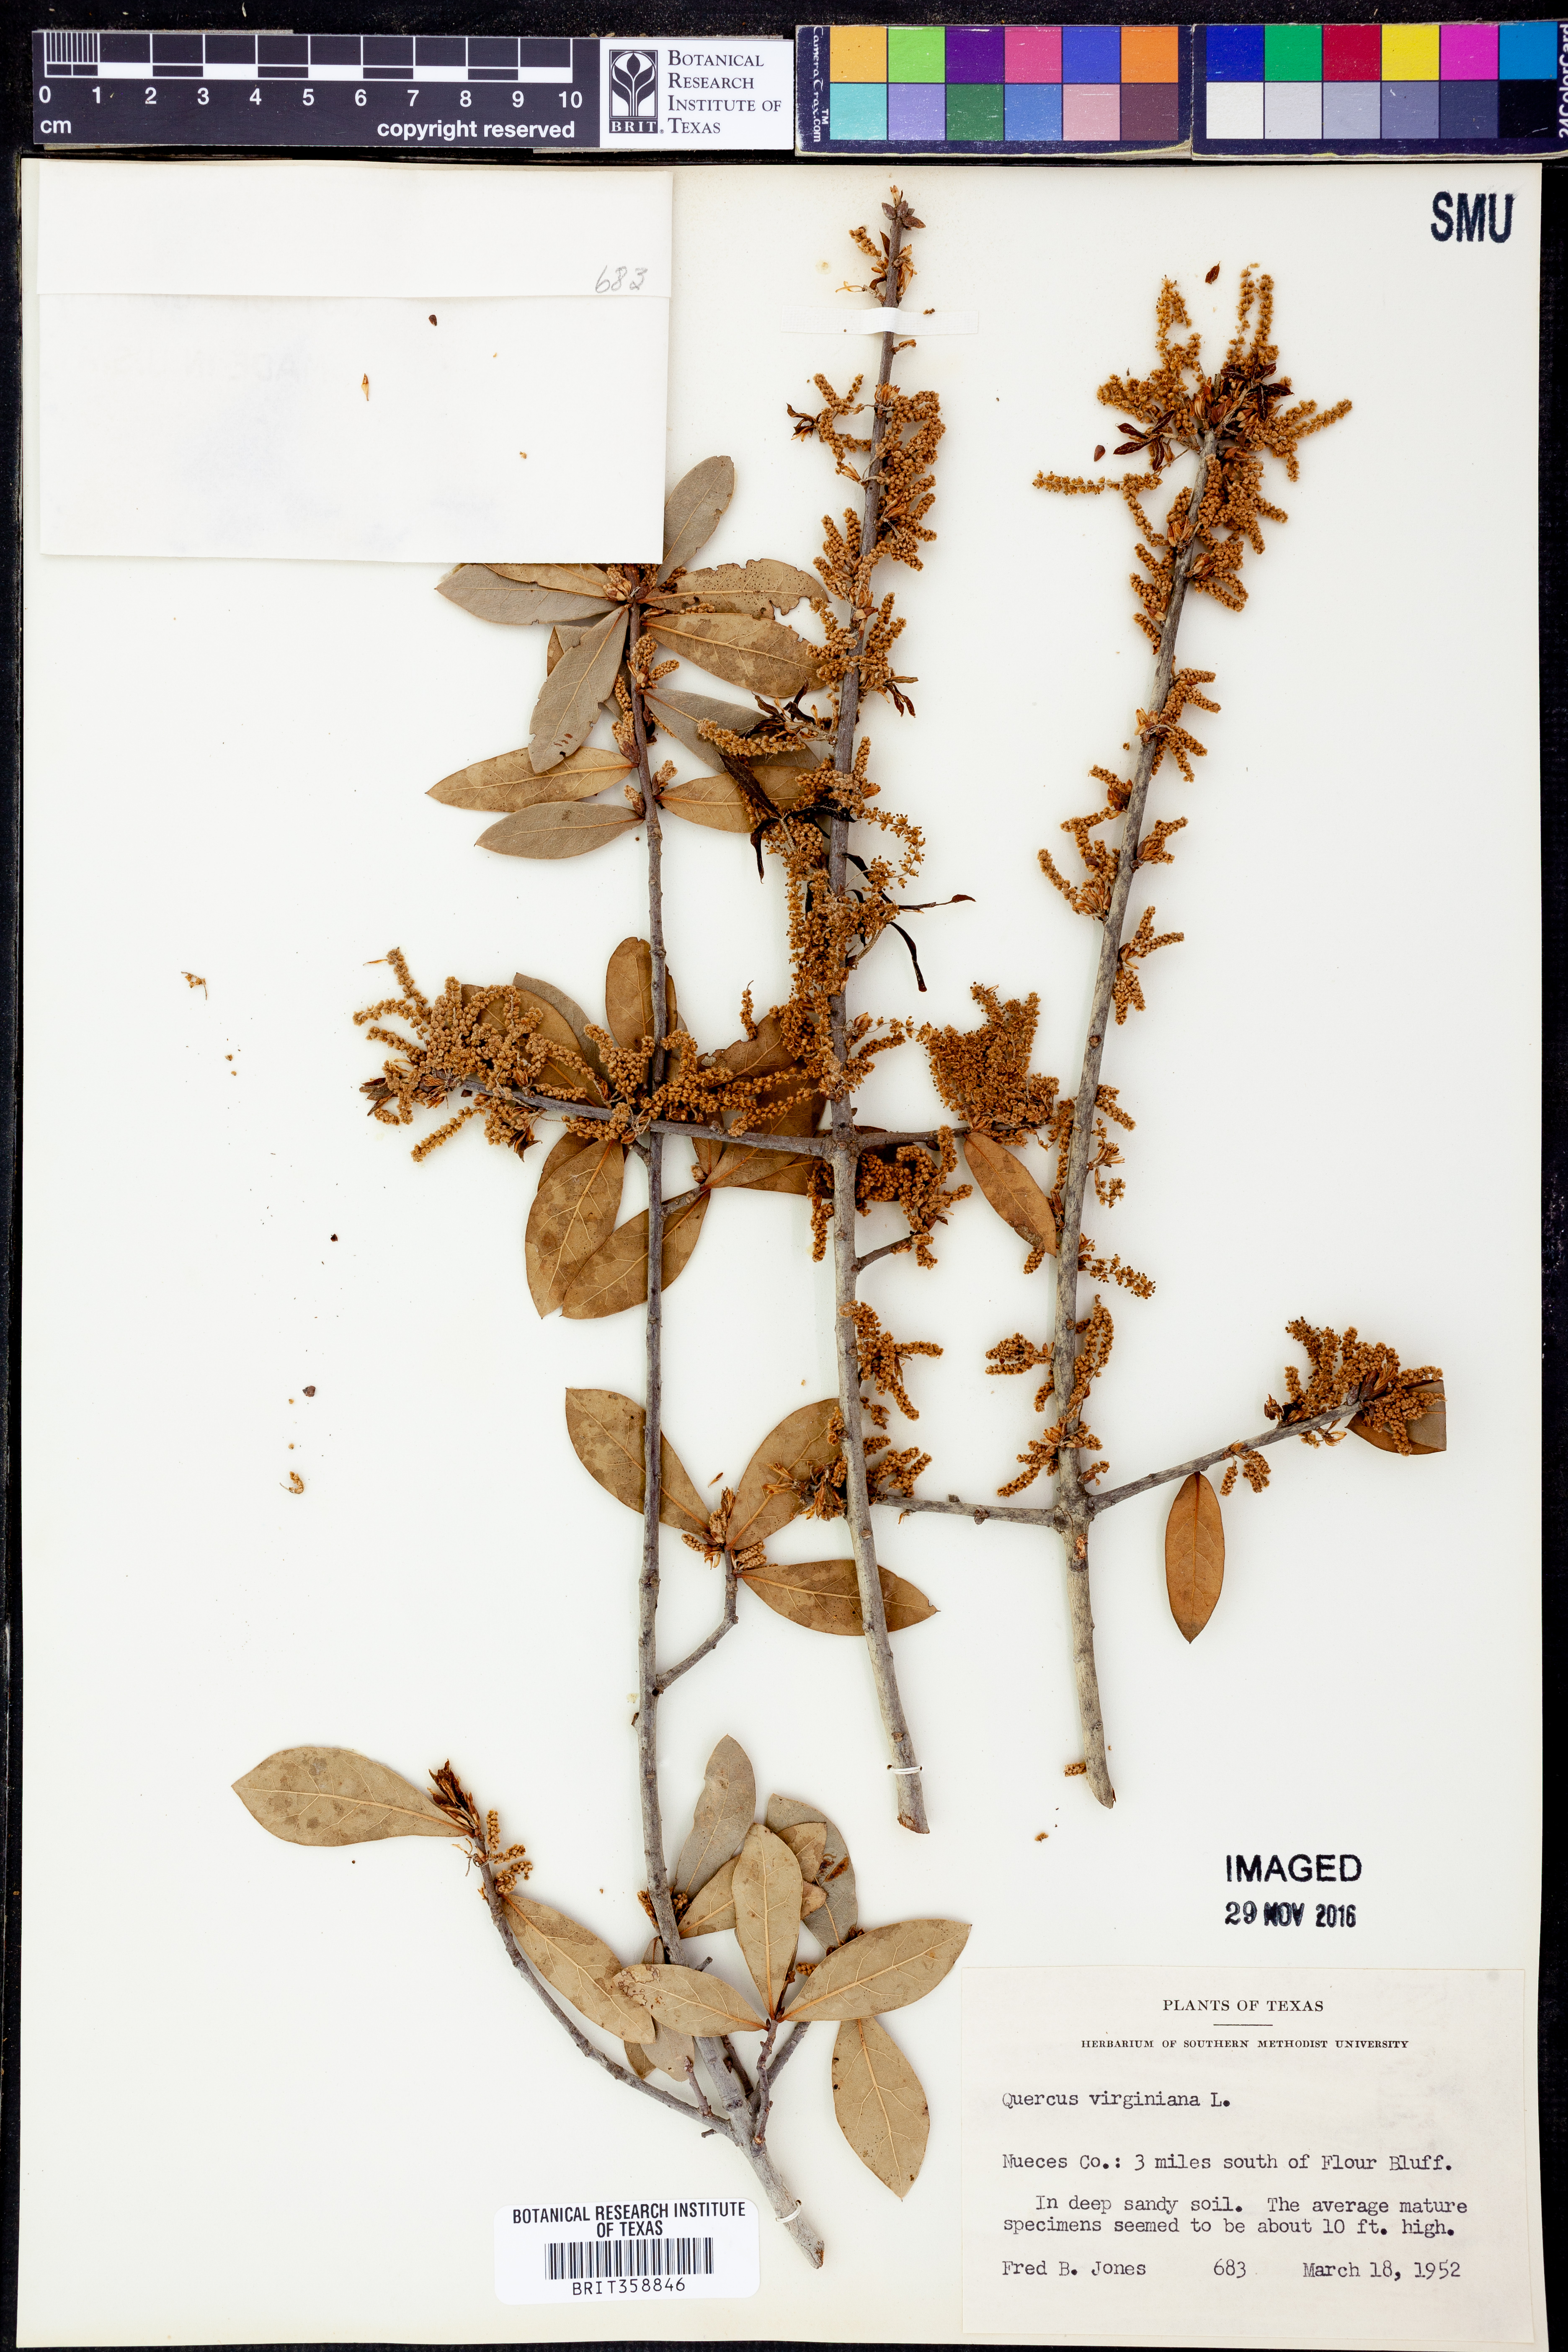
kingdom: Plantae
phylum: Tracheophyta
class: Magnoliopsida
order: Fagales
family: Fagaceae
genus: Quercus
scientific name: Quercus virginiana
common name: Southern live oak
